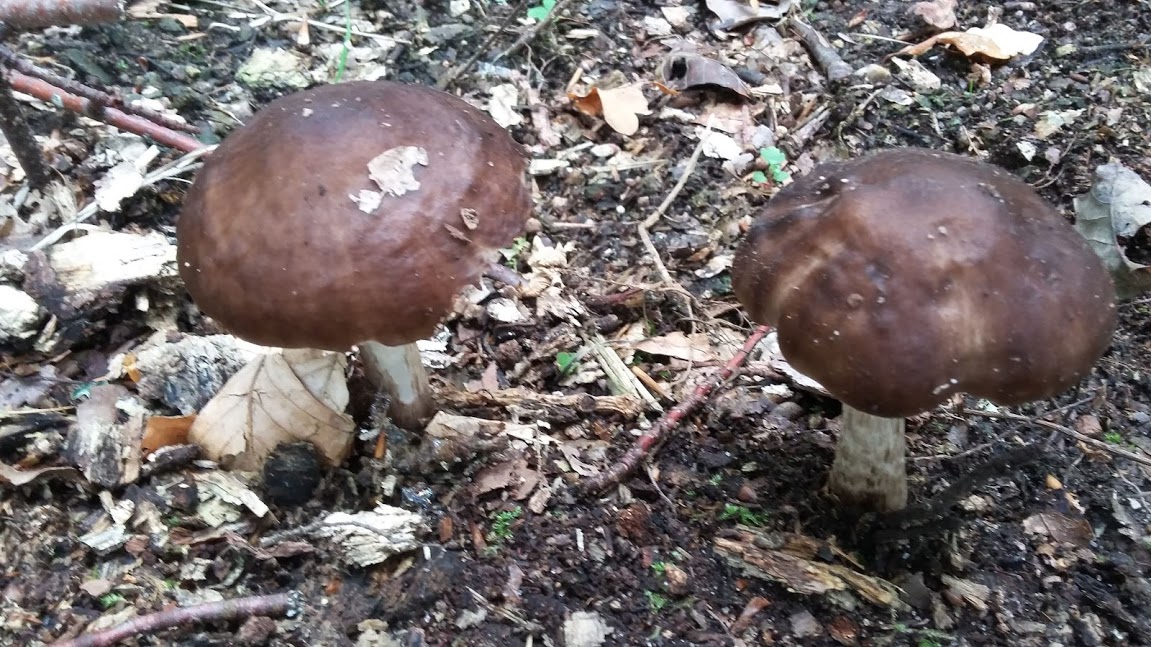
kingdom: Fungi
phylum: Basidiomycota
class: Agaricomycetes
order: Agaricales
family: Pluteaceae
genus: Pluteus
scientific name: Pluteus cervinus
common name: sodfarvet skærmhat
